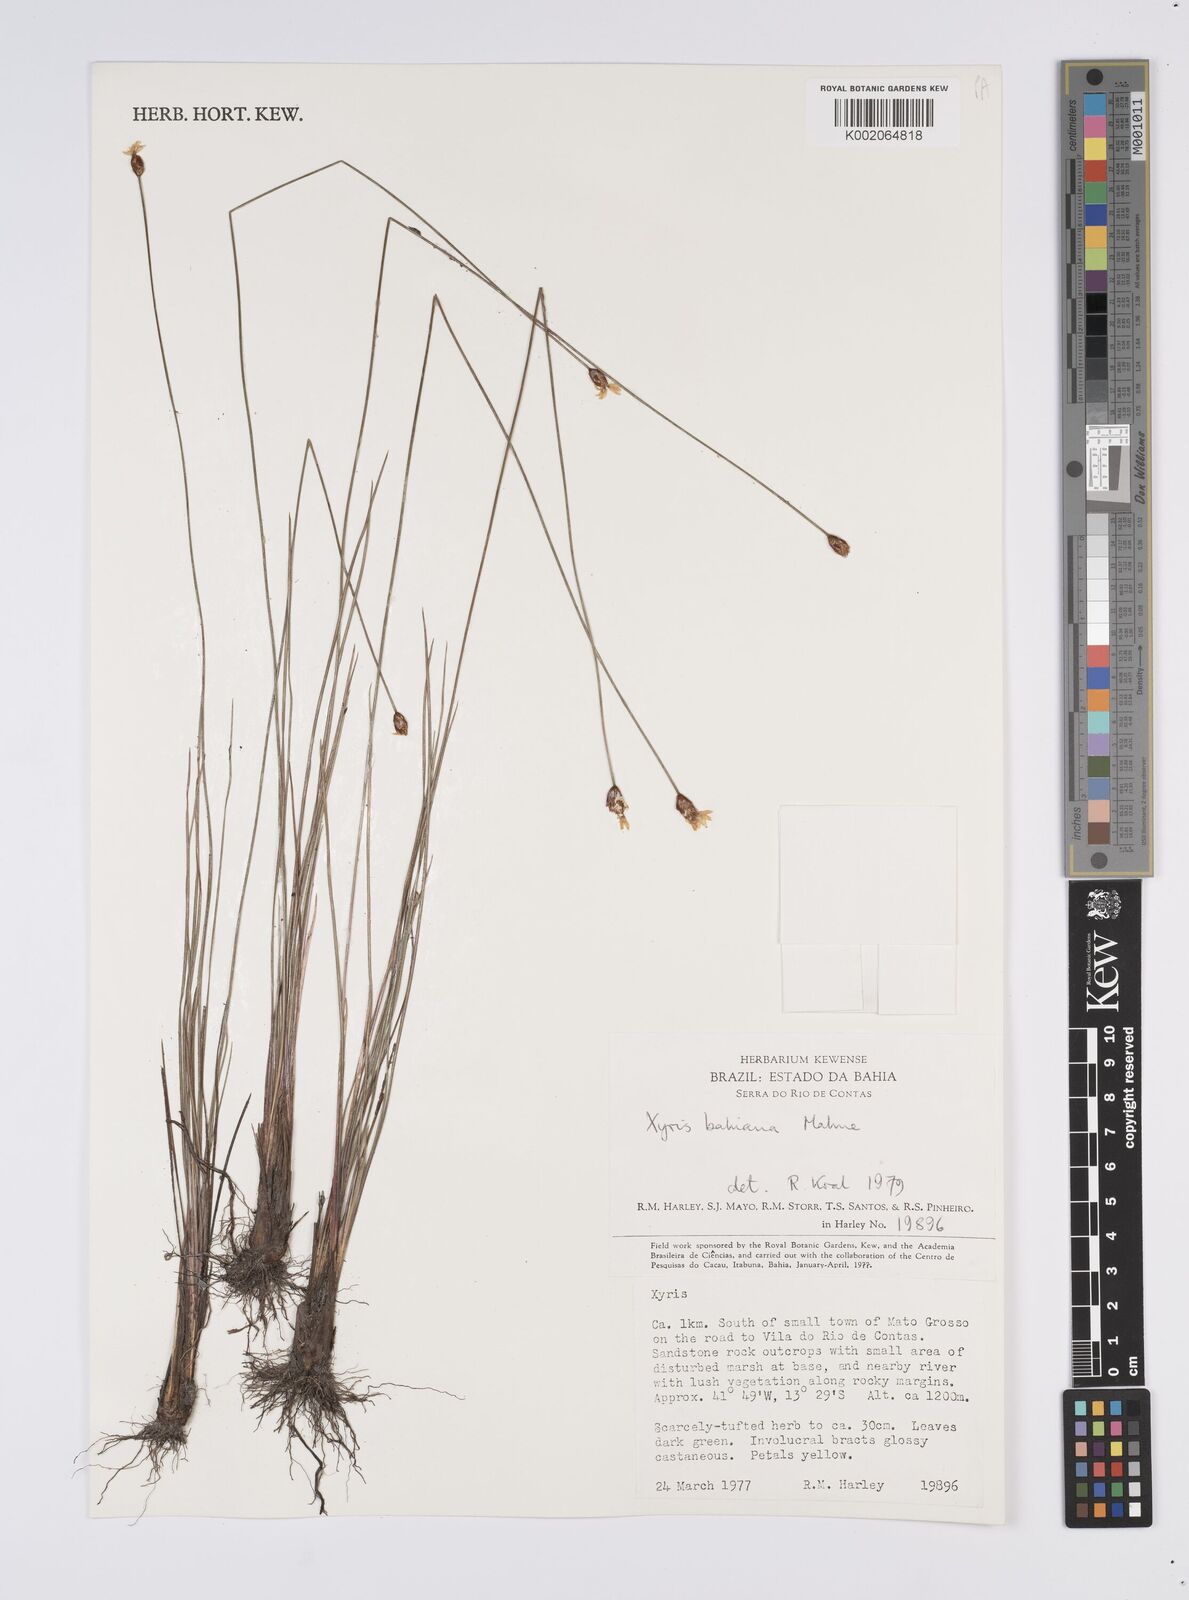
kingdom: Plantae
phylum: Tracheophyta
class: Liliopsida
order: Poales
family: Xyridaceae
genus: Xyris
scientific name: Xyris bahiana
